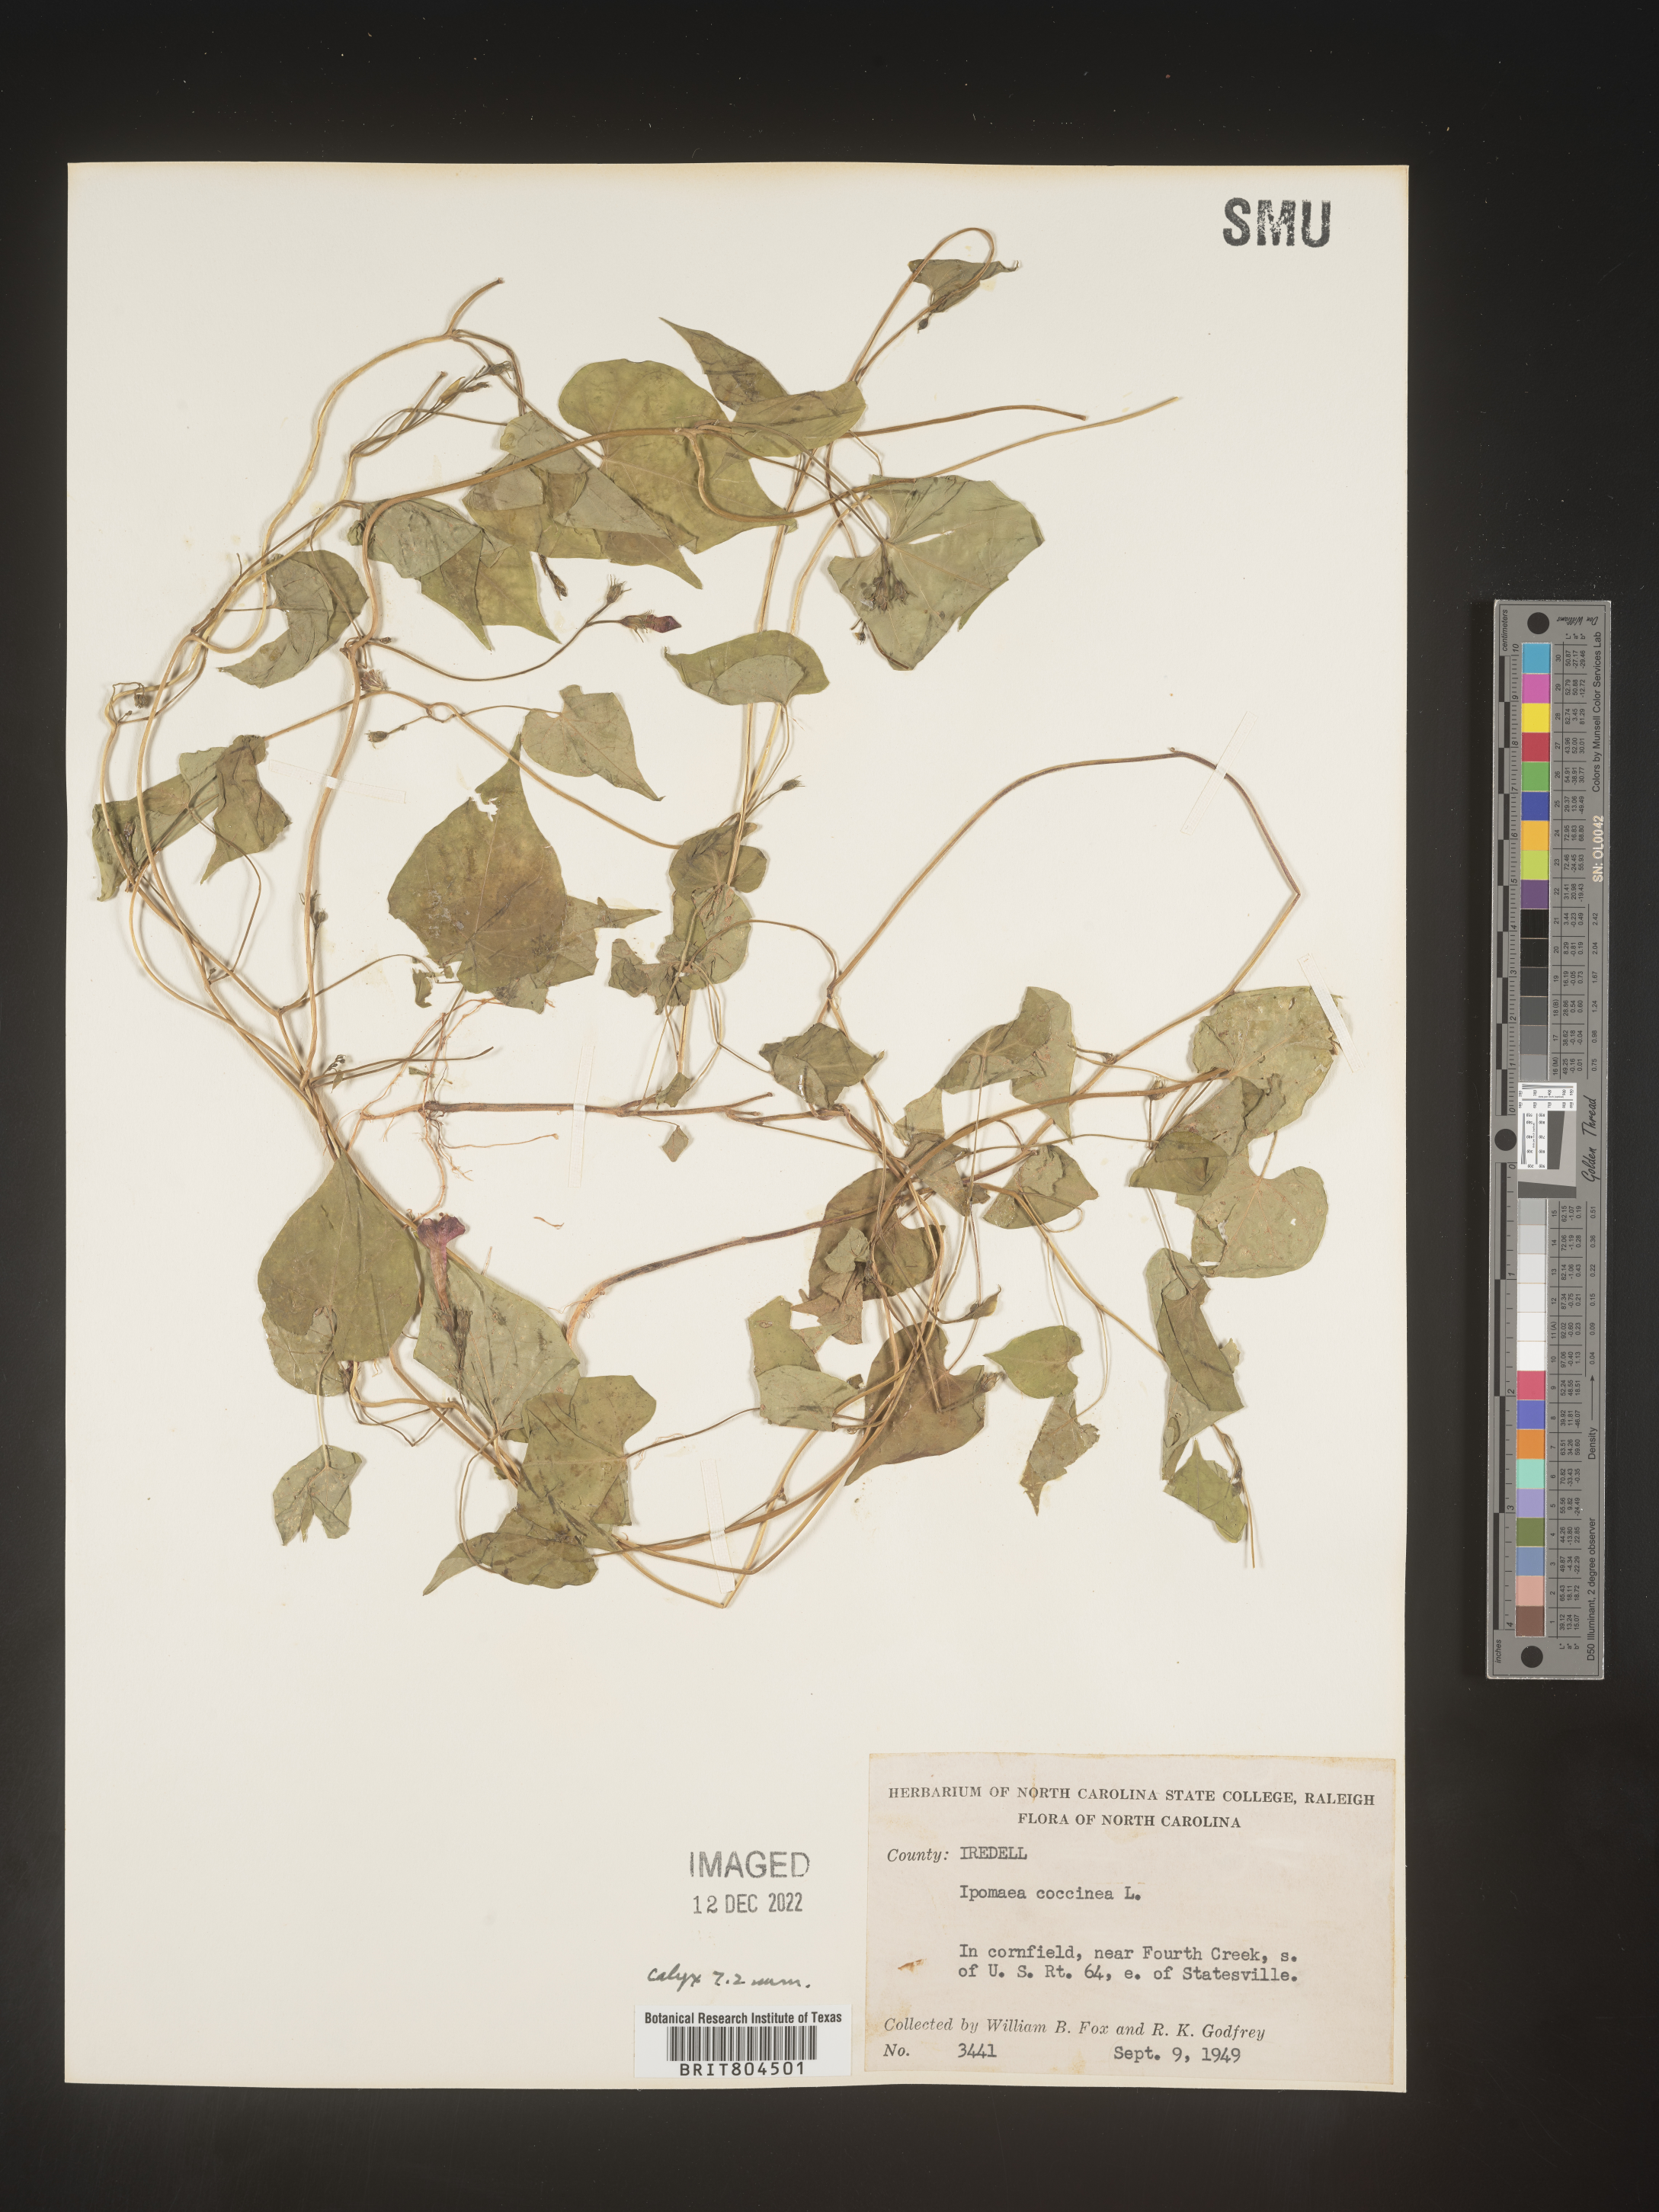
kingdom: Plantae
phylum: Tracheophyta
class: Magnoliopsida
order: Solanales
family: Convolvulaceae
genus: Ipomoea
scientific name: Ipomoea coccinea
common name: Red morning-glory
